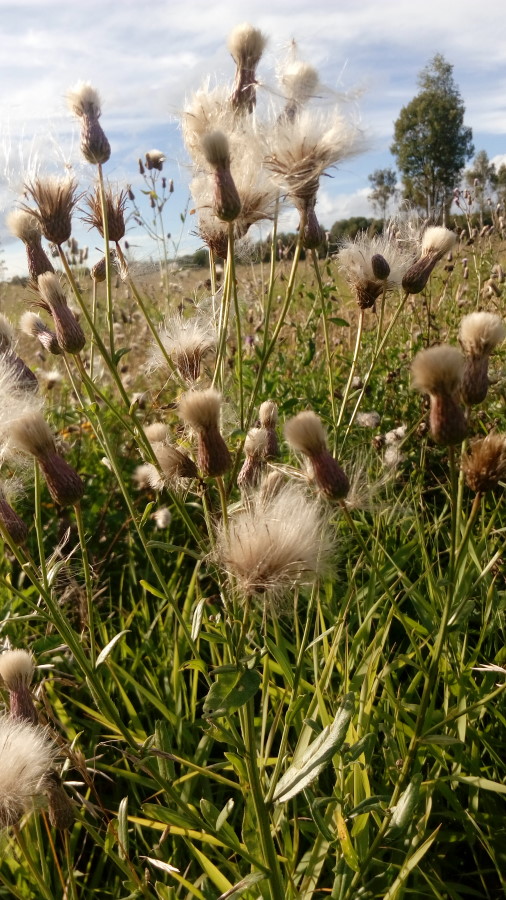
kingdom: Plantae
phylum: Tracheophyta
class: Magnoliopsida
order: Asterales
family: Asteraceae
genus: Cirsium
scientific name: Cirsium arvense
